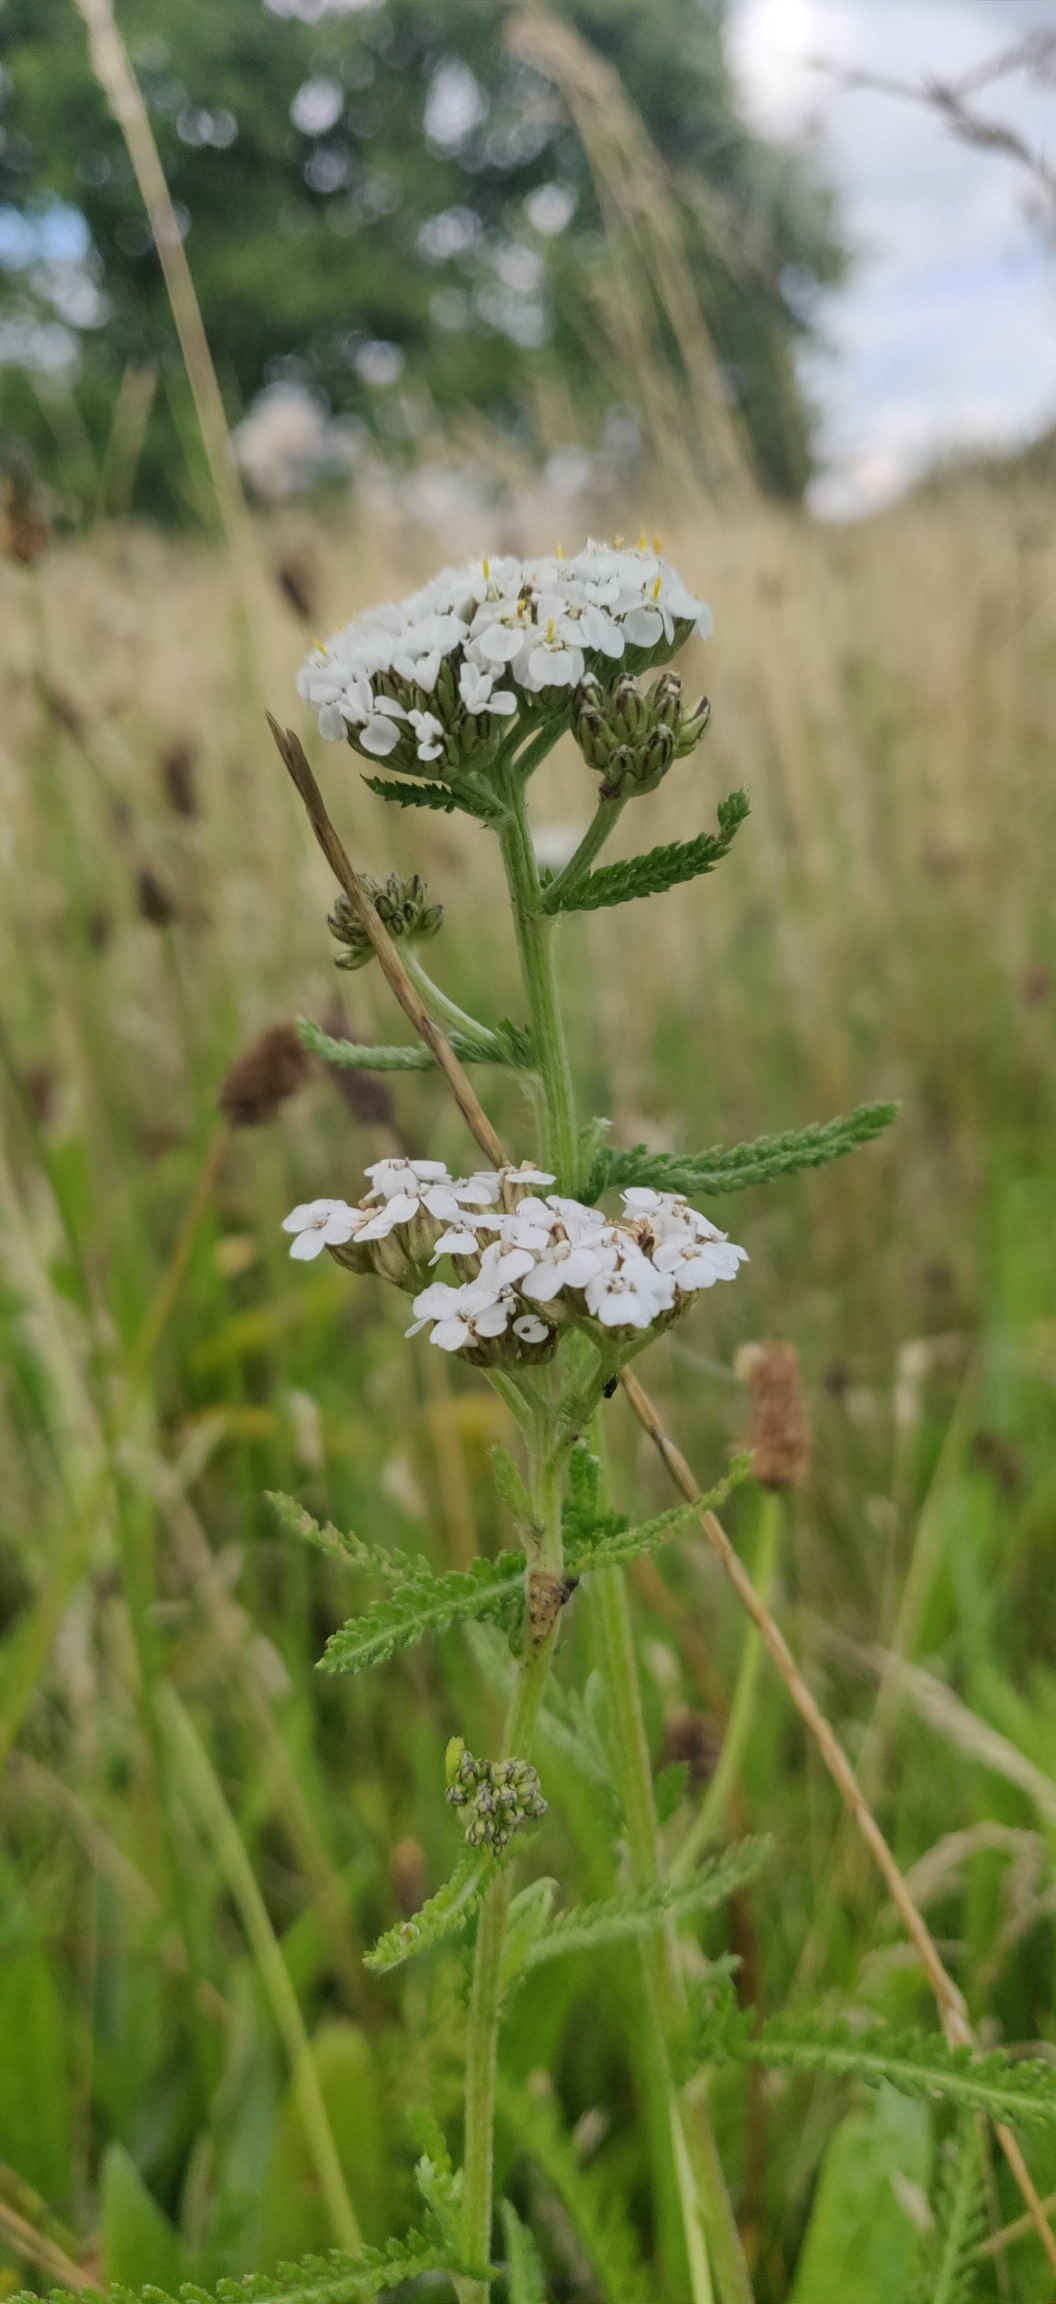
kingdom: Plantae
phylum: Tracheophyta
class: Magnoliopsida
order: Asterales
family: Asteraceae
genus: Achillea
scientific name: Achillea millefolium
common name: Almindelig røllike
